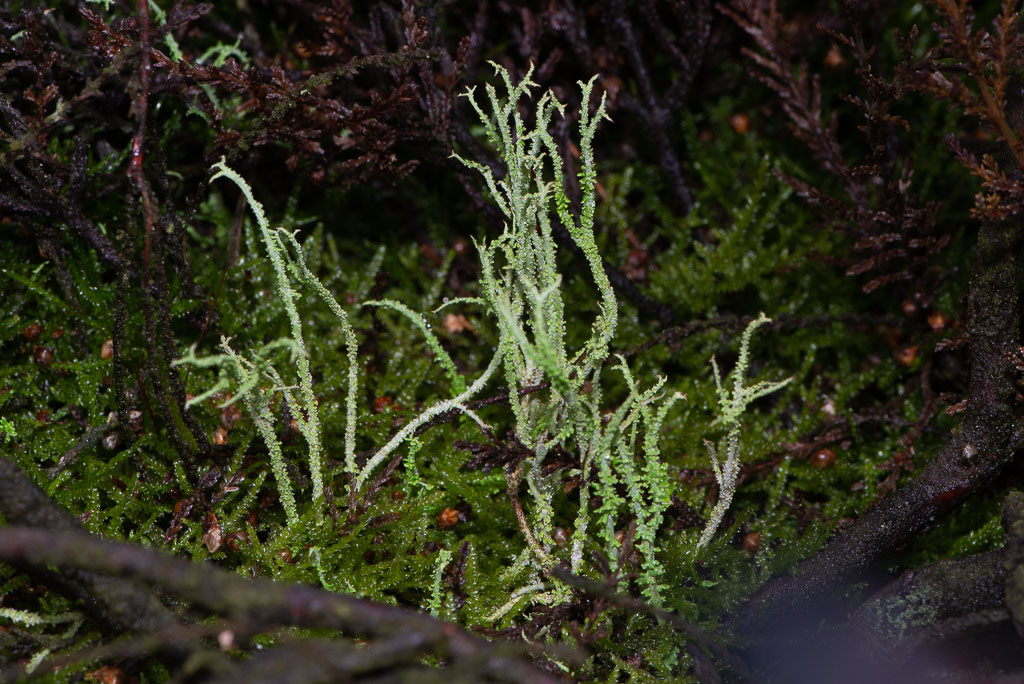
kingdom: Fungi
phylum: Ascomycota
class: Lecanoromycetes
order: Lecanorales
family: Cladoniaceae
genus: Cladonia
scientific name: Cladonia scabriuscula
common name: ru bægerlav
